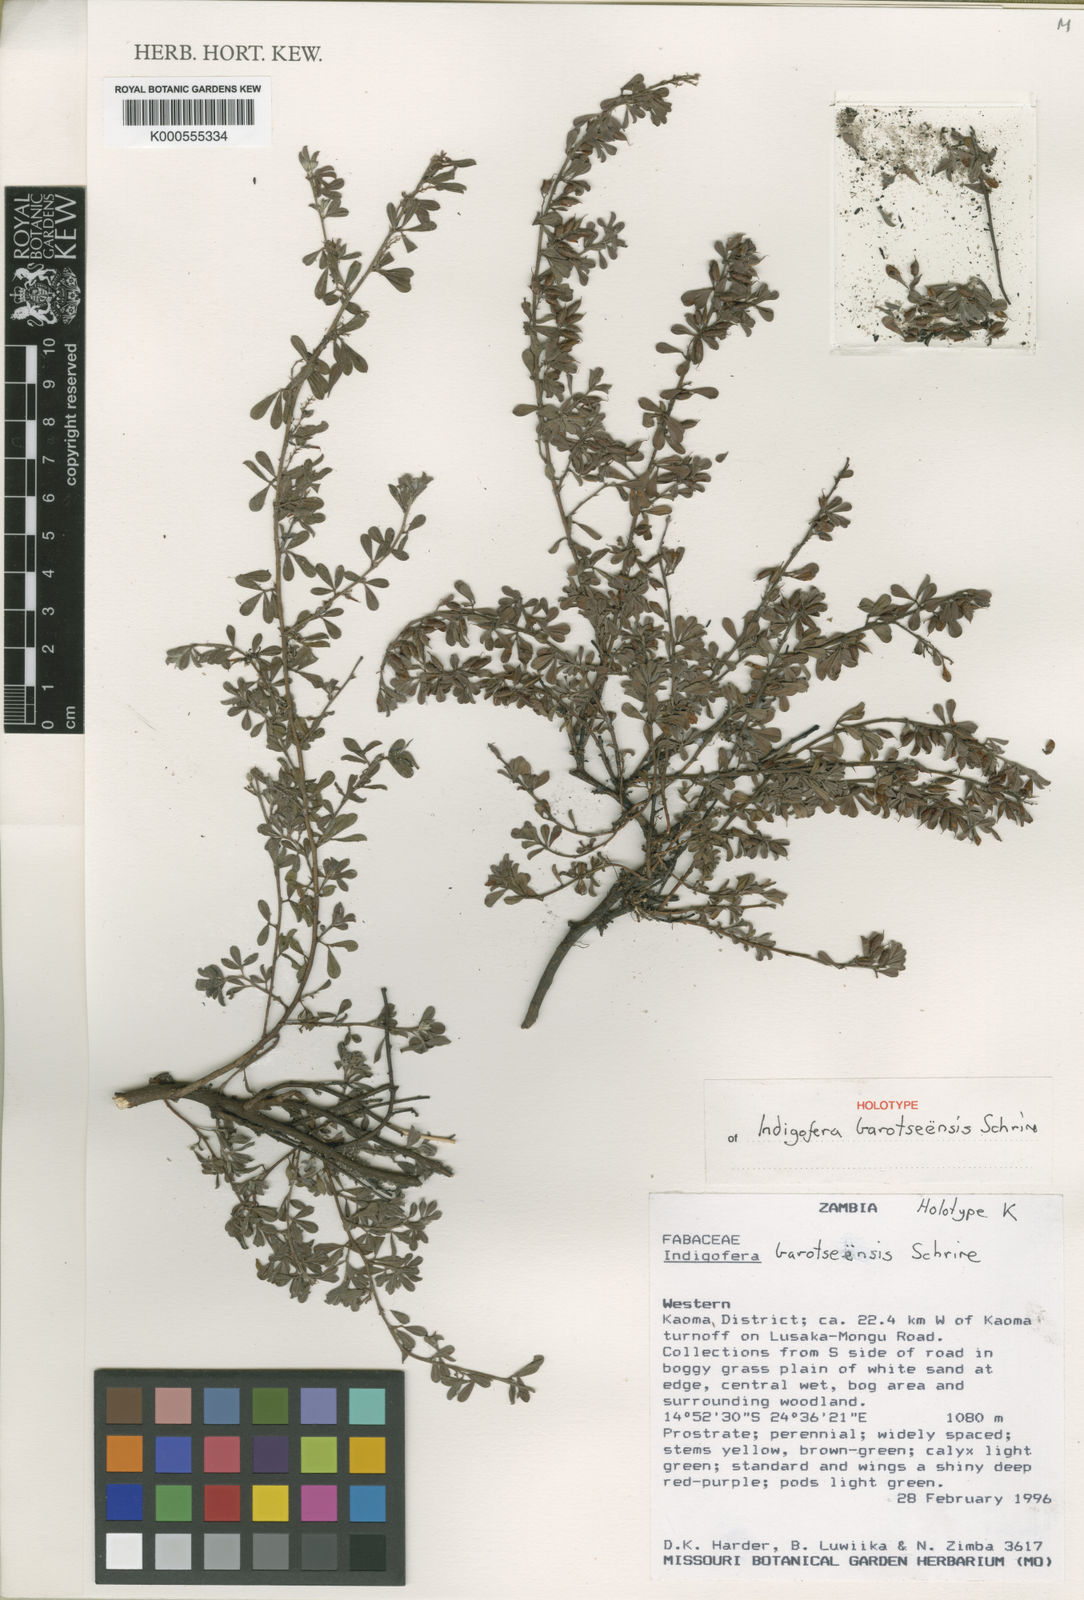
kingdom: Plantae
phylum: Tracheophyta
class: Magnoliopsida
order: Fabales
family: Fabaceae
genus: Indigofera
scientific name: Indigofera barotseensis
